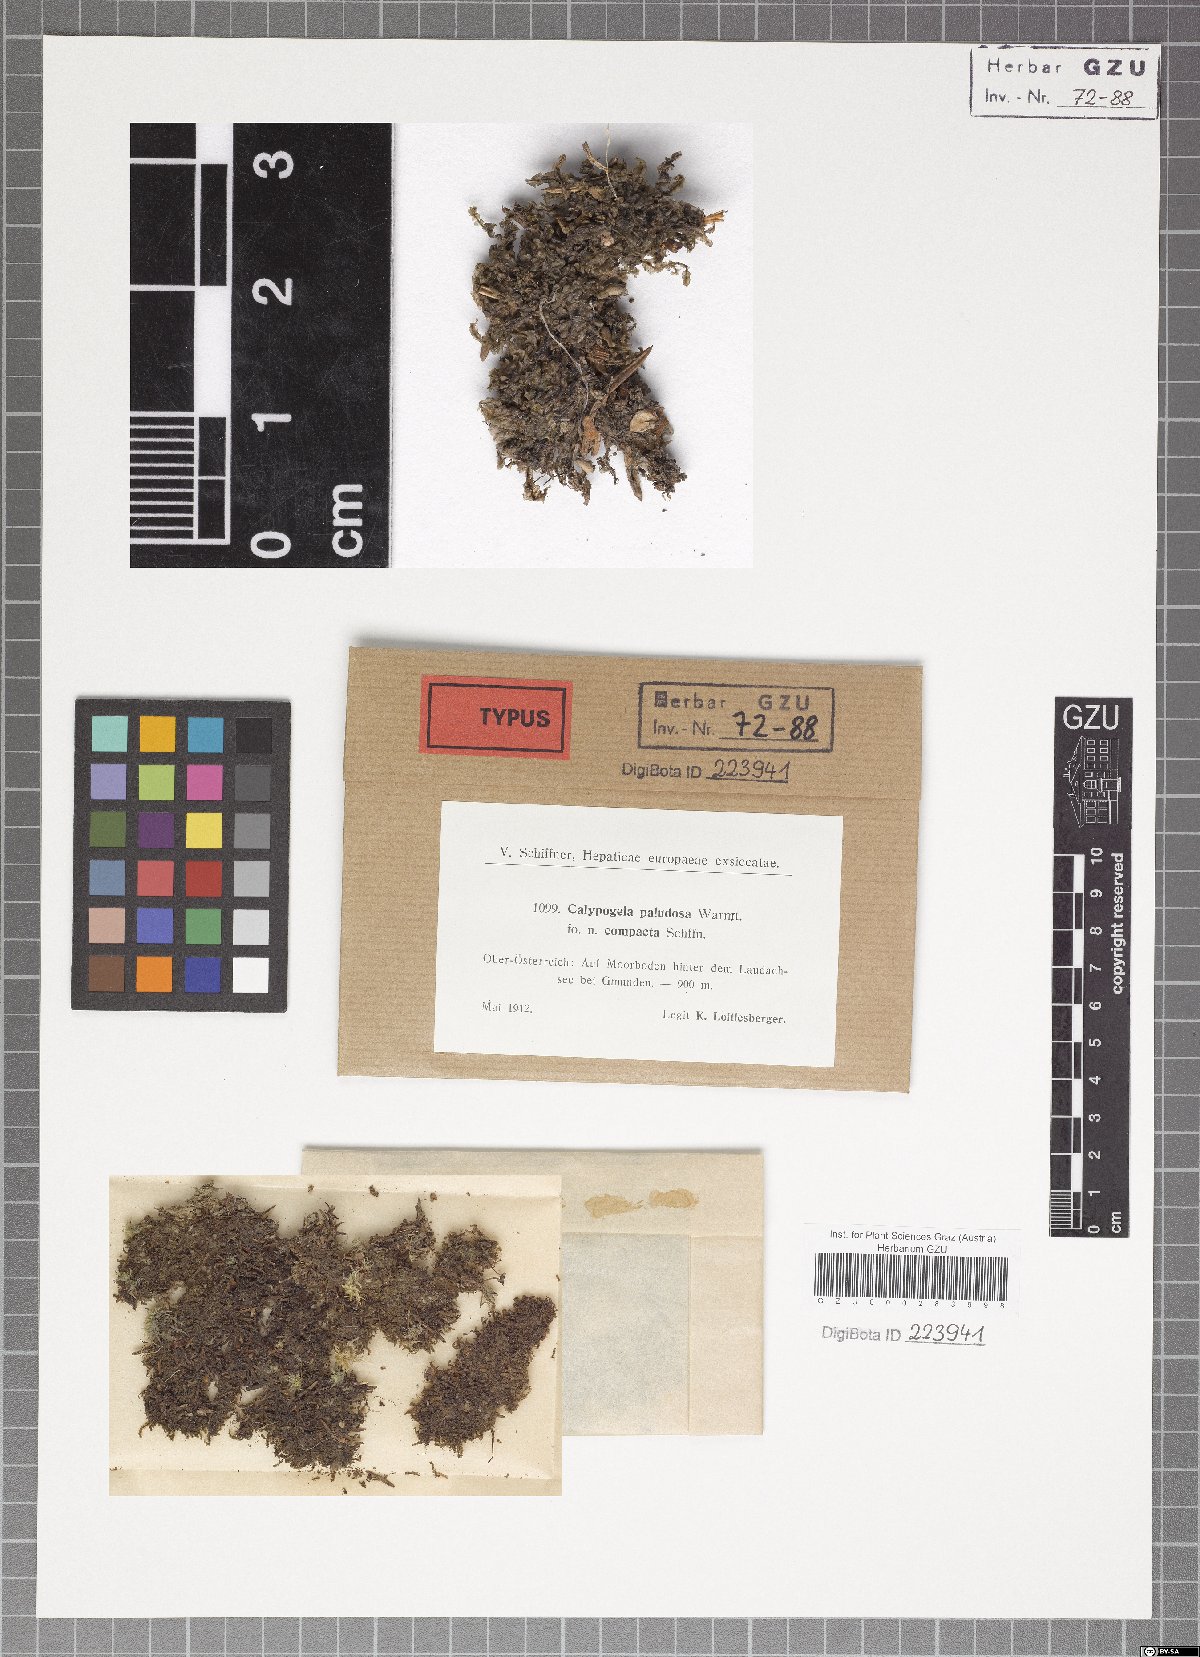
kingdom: Plantae
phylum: Marchantiophyta
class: Jungermanniopsida
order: Jungermanniales
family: Calypogeiaceae
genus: Calypogeia
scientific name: Calypogeia fissa
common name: Common pouchwort
